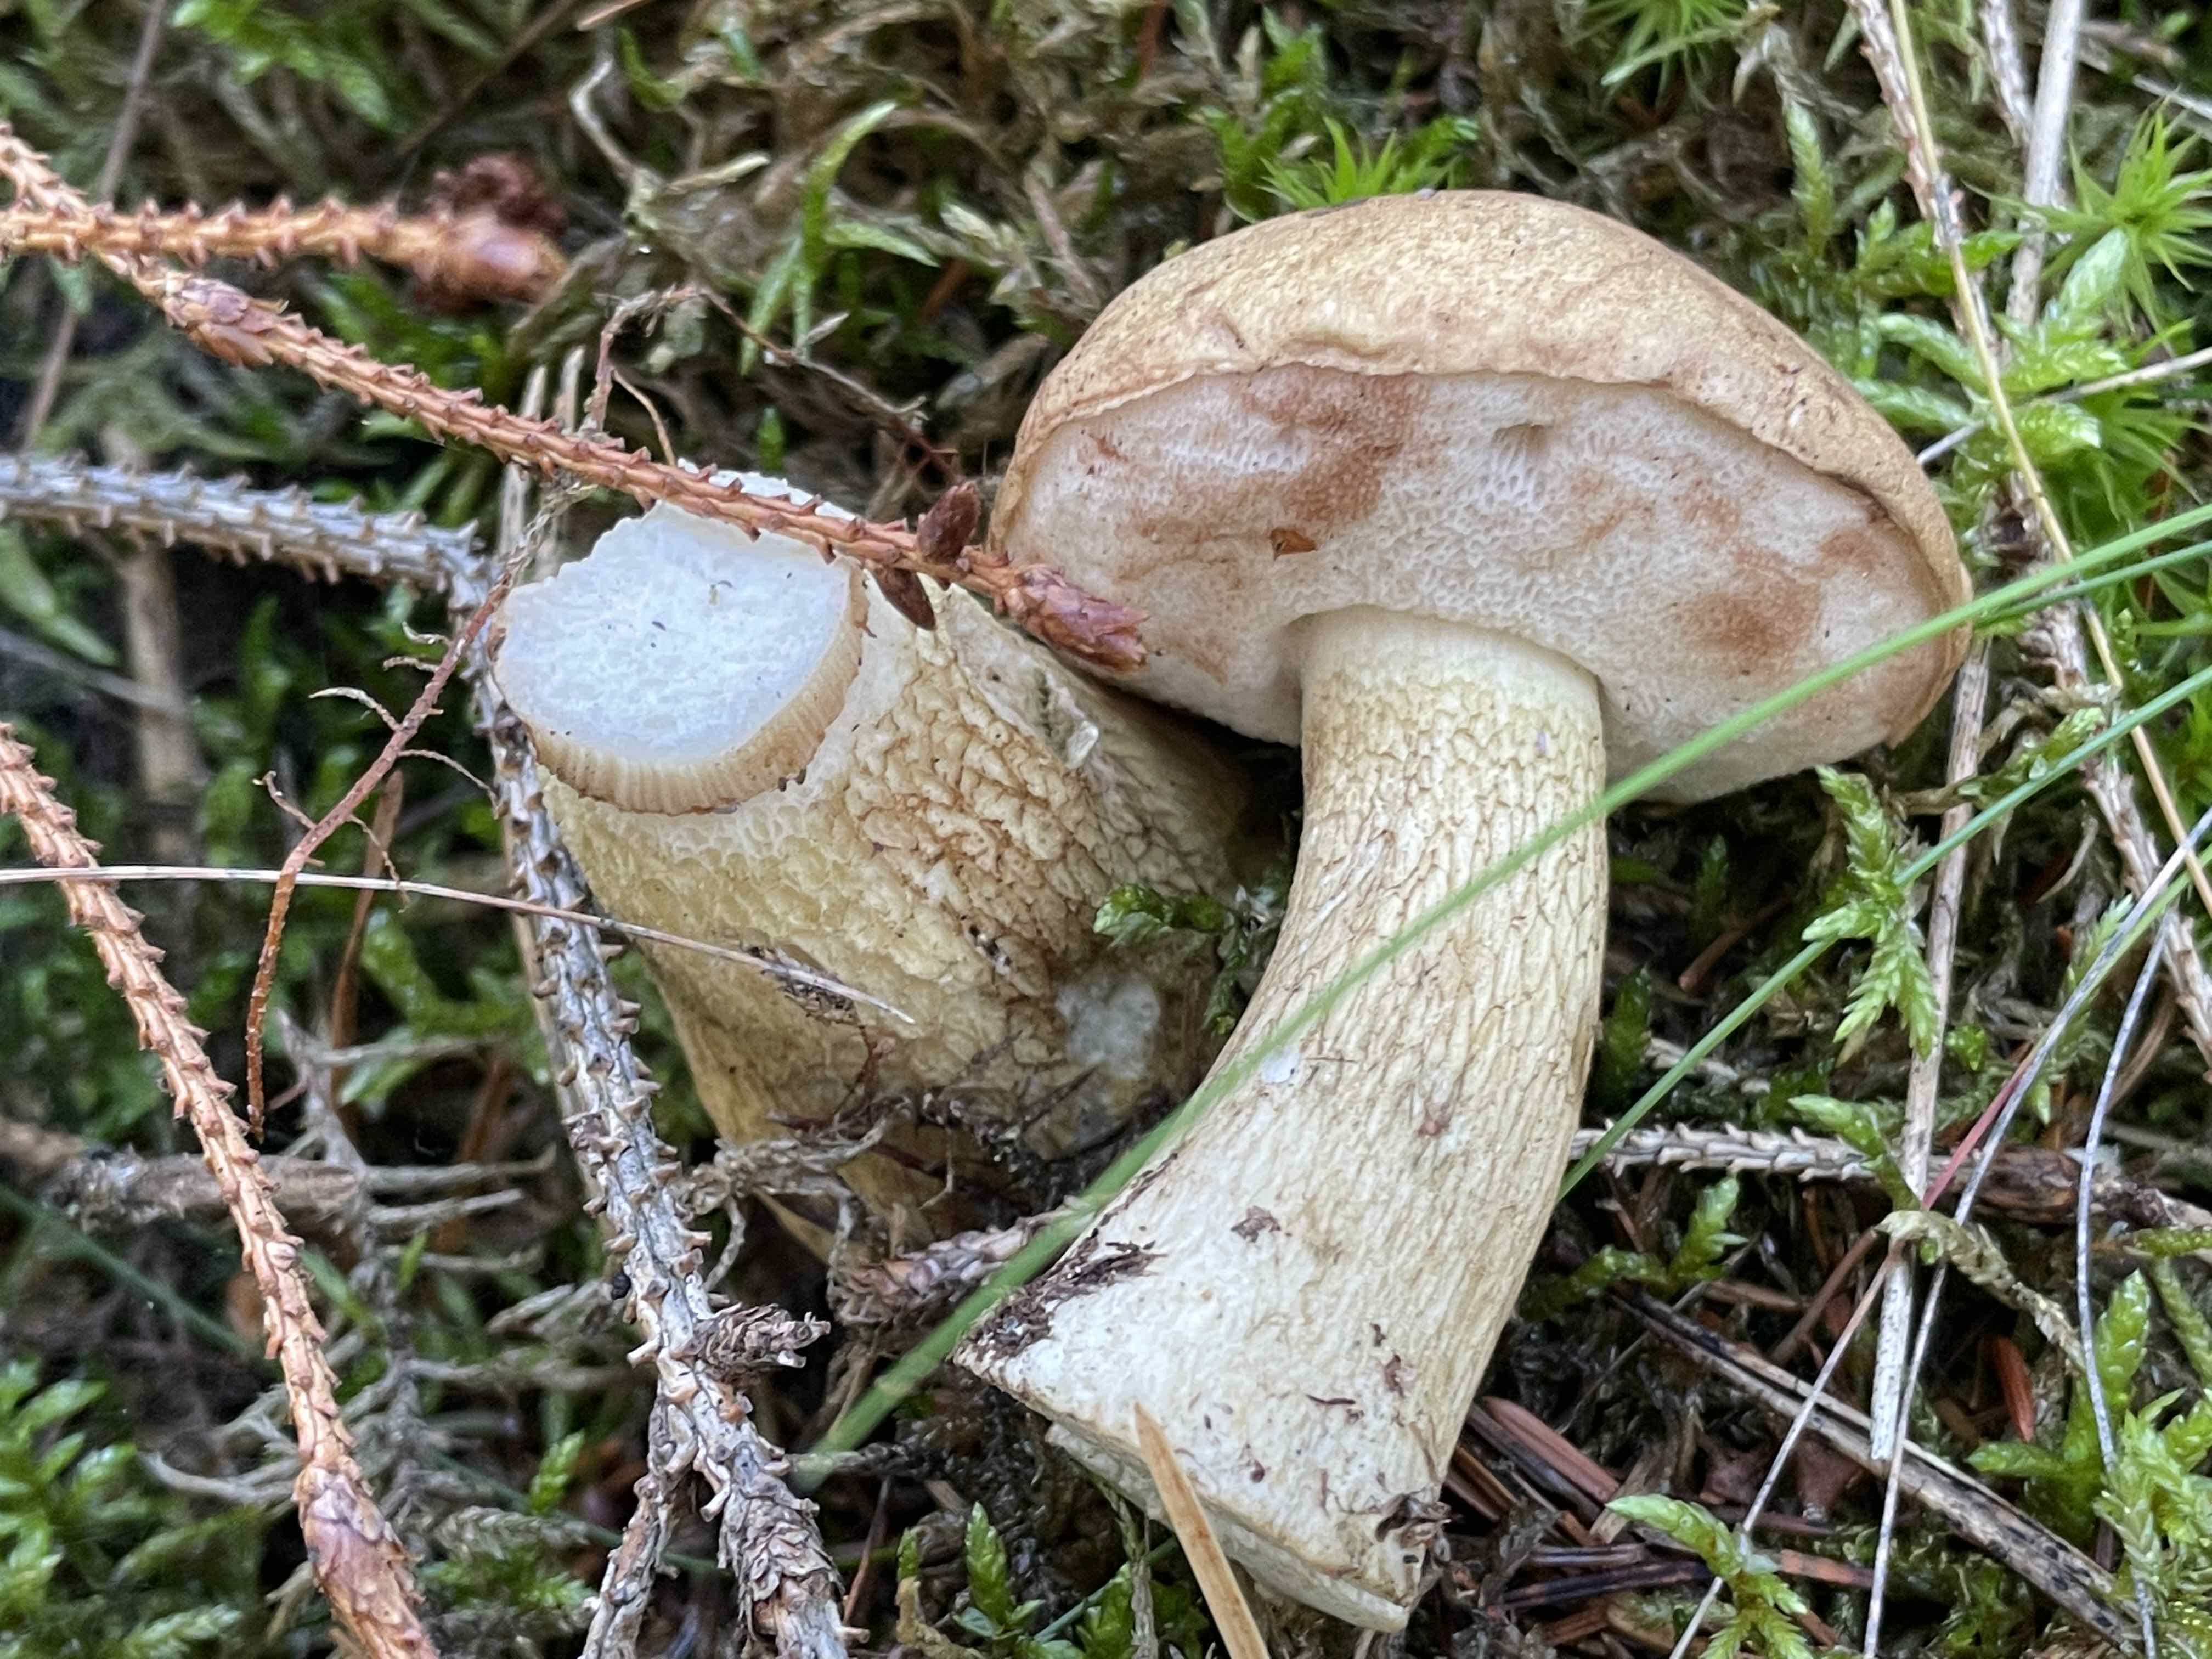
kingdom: Fungi
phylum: Basidiomycota
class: Agaricomycetes
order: Boletales
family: Boletaceae
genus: Tylopilus
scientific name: Tylopilus felleus
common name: galderørhat
